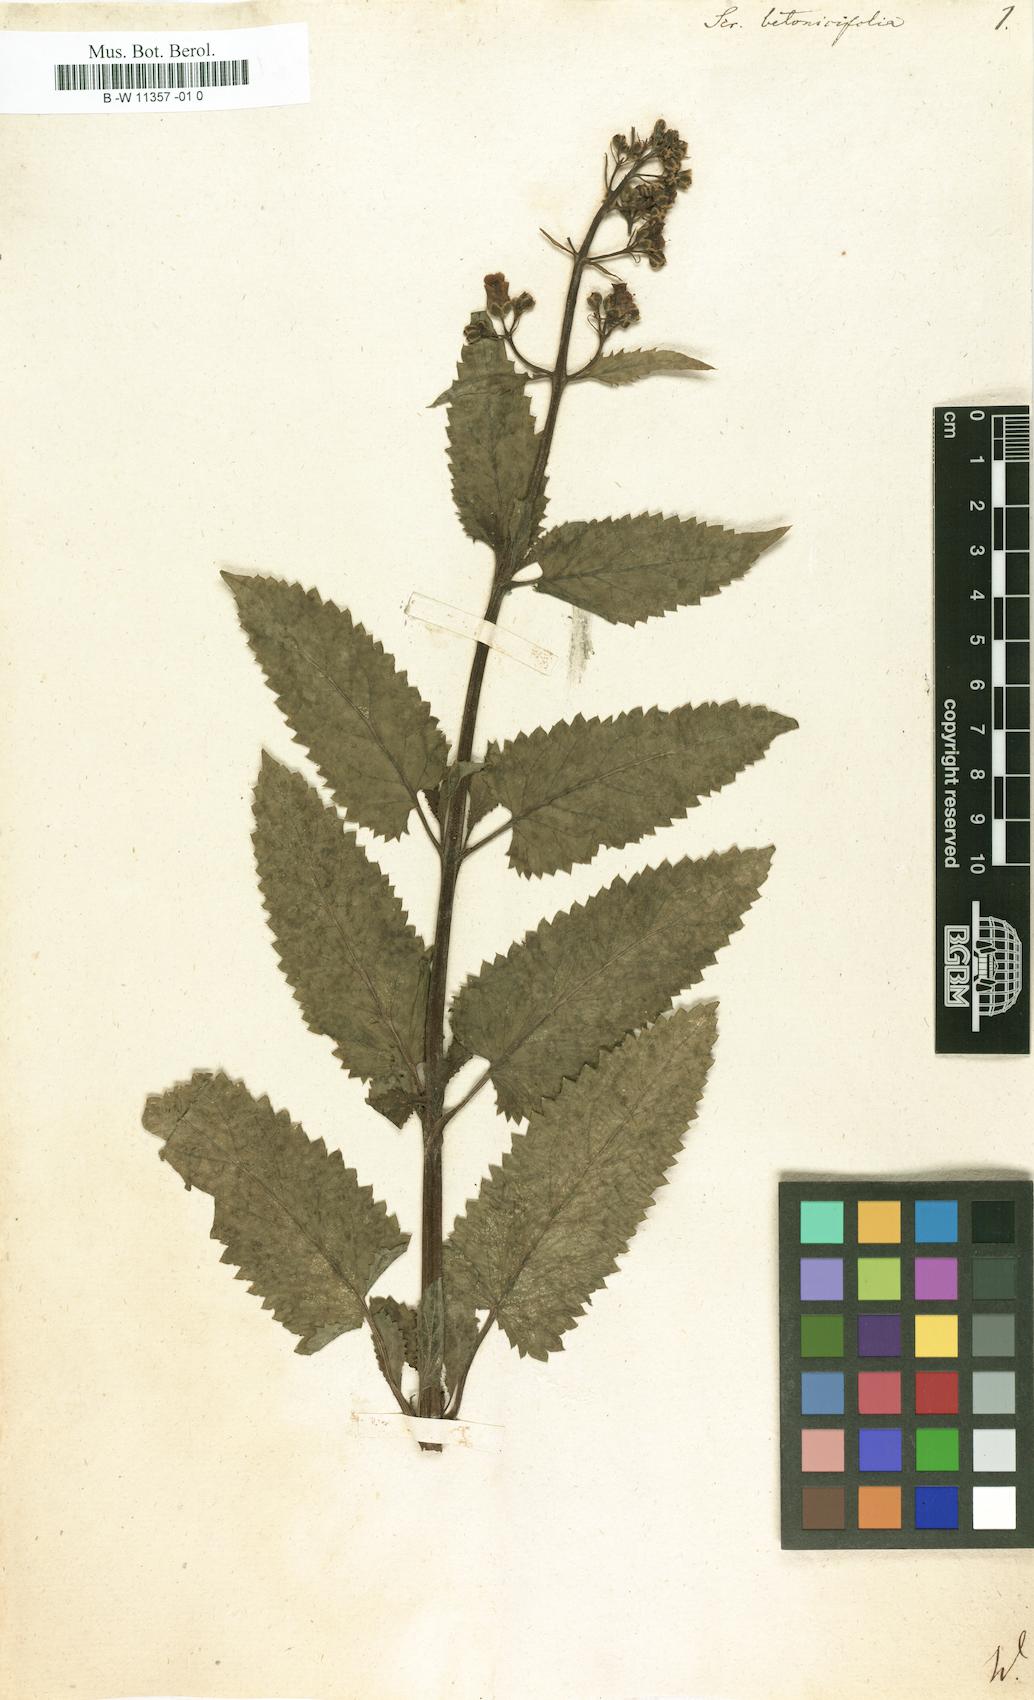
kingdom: Plantae
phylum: Tracheophyta
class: Magnoliopsida
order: Lamiales
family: Scrophulariaceae
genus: Scrophularia
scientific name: Scrophularia
